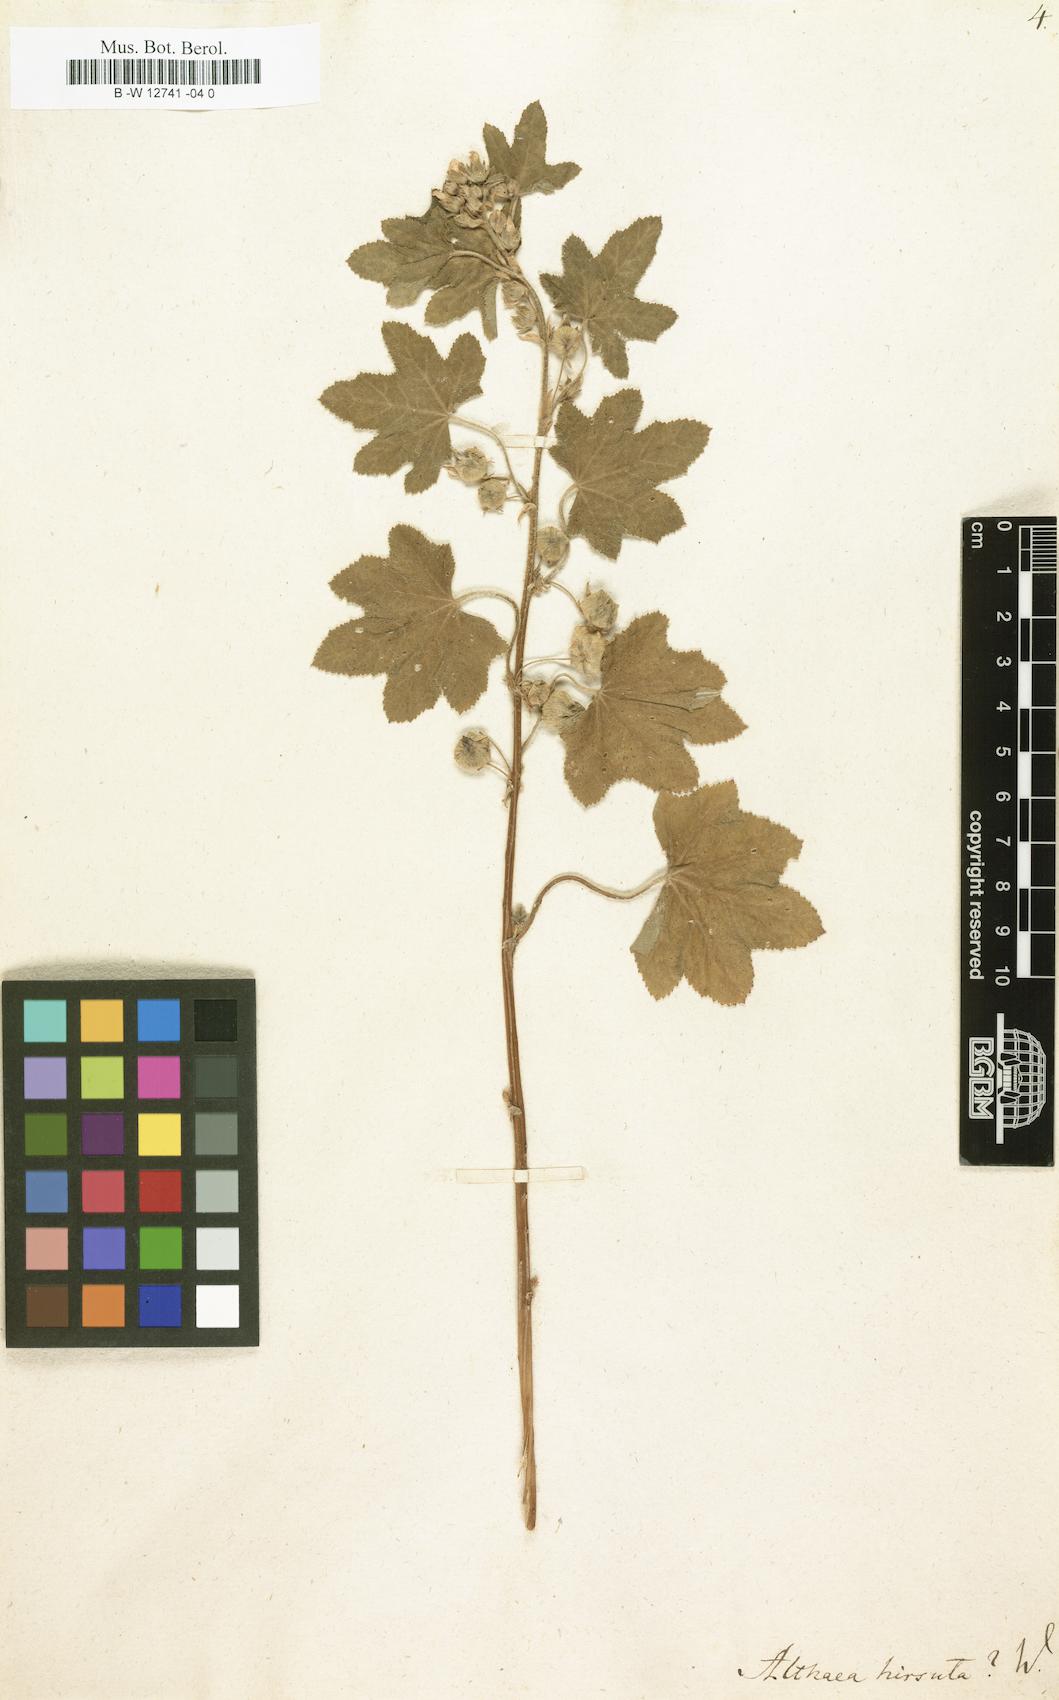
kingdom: Plantae
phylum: Tracheophyta
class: Magnoliopsida
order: Malvales
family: Malvaceae
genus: Althaea
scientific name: Althaea hirsuta
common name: Rough marsh-mallow
